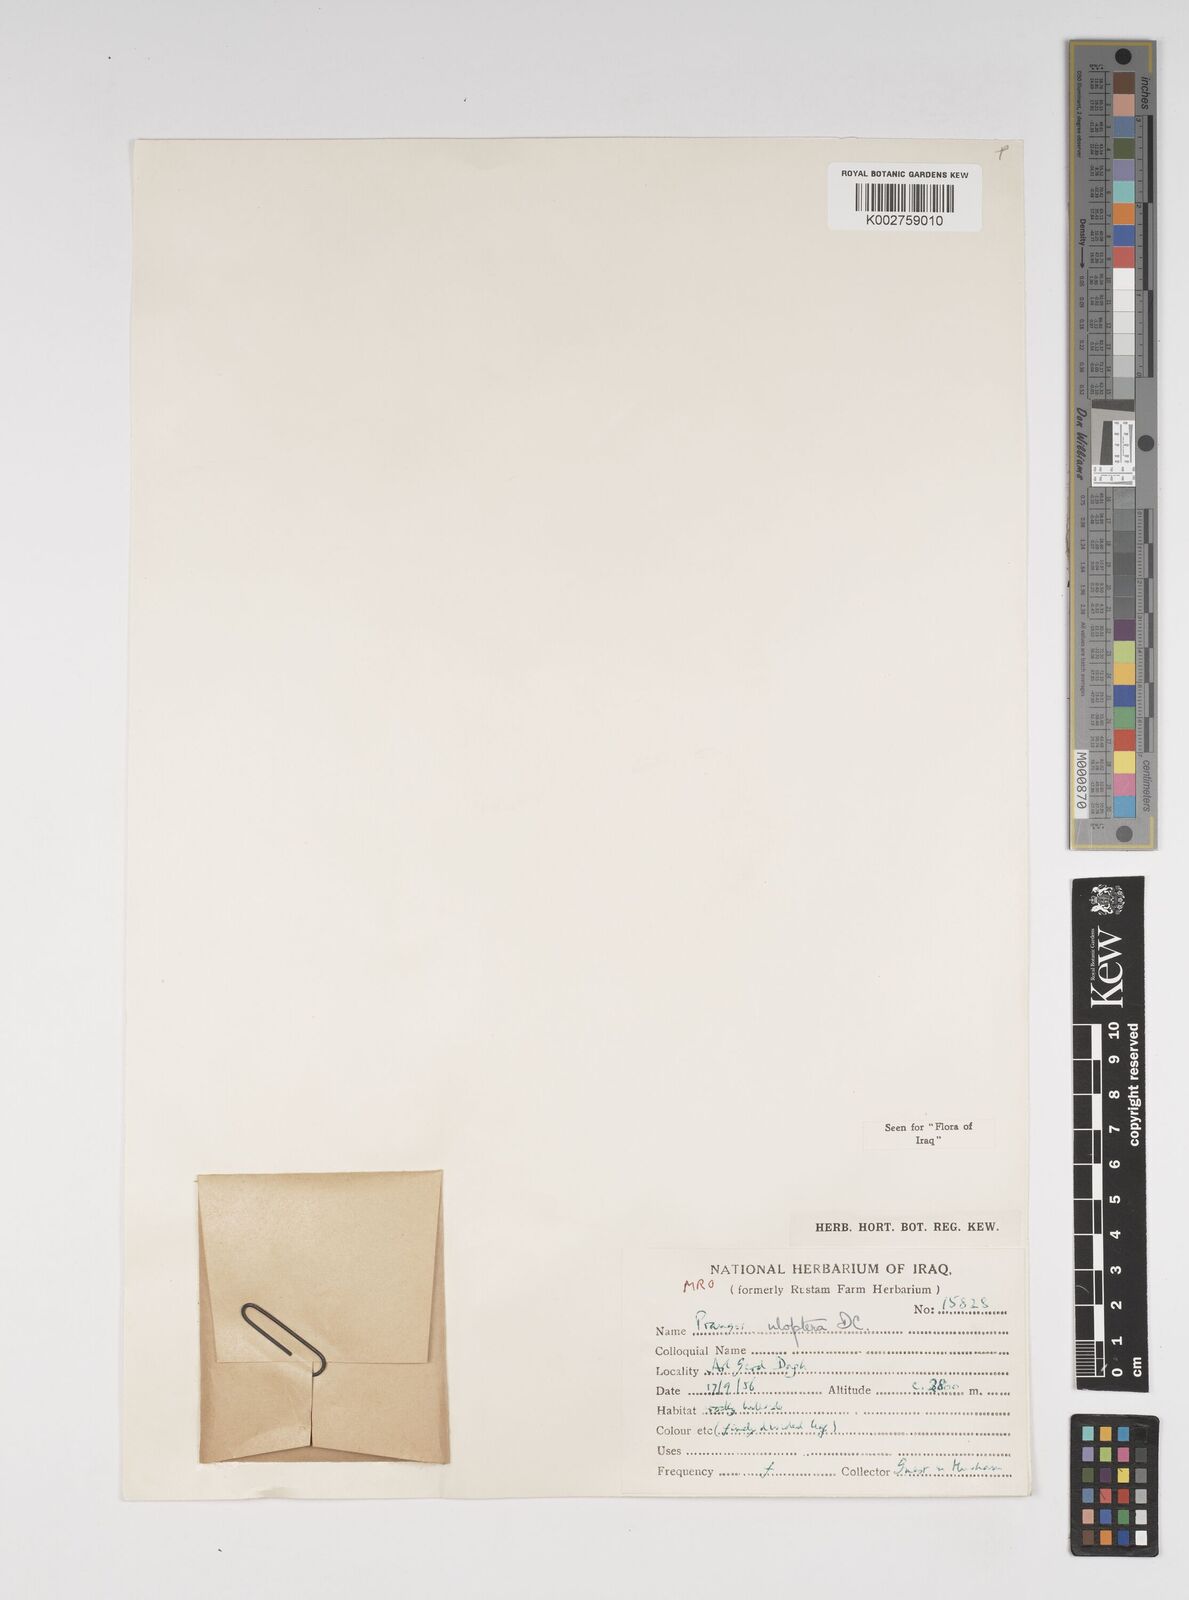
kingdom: Plantae
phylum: Tracheophyta
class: Magnoliopsida
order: Apiales
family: Apiaceae
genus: Prangos
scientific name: Prangos uloptera
